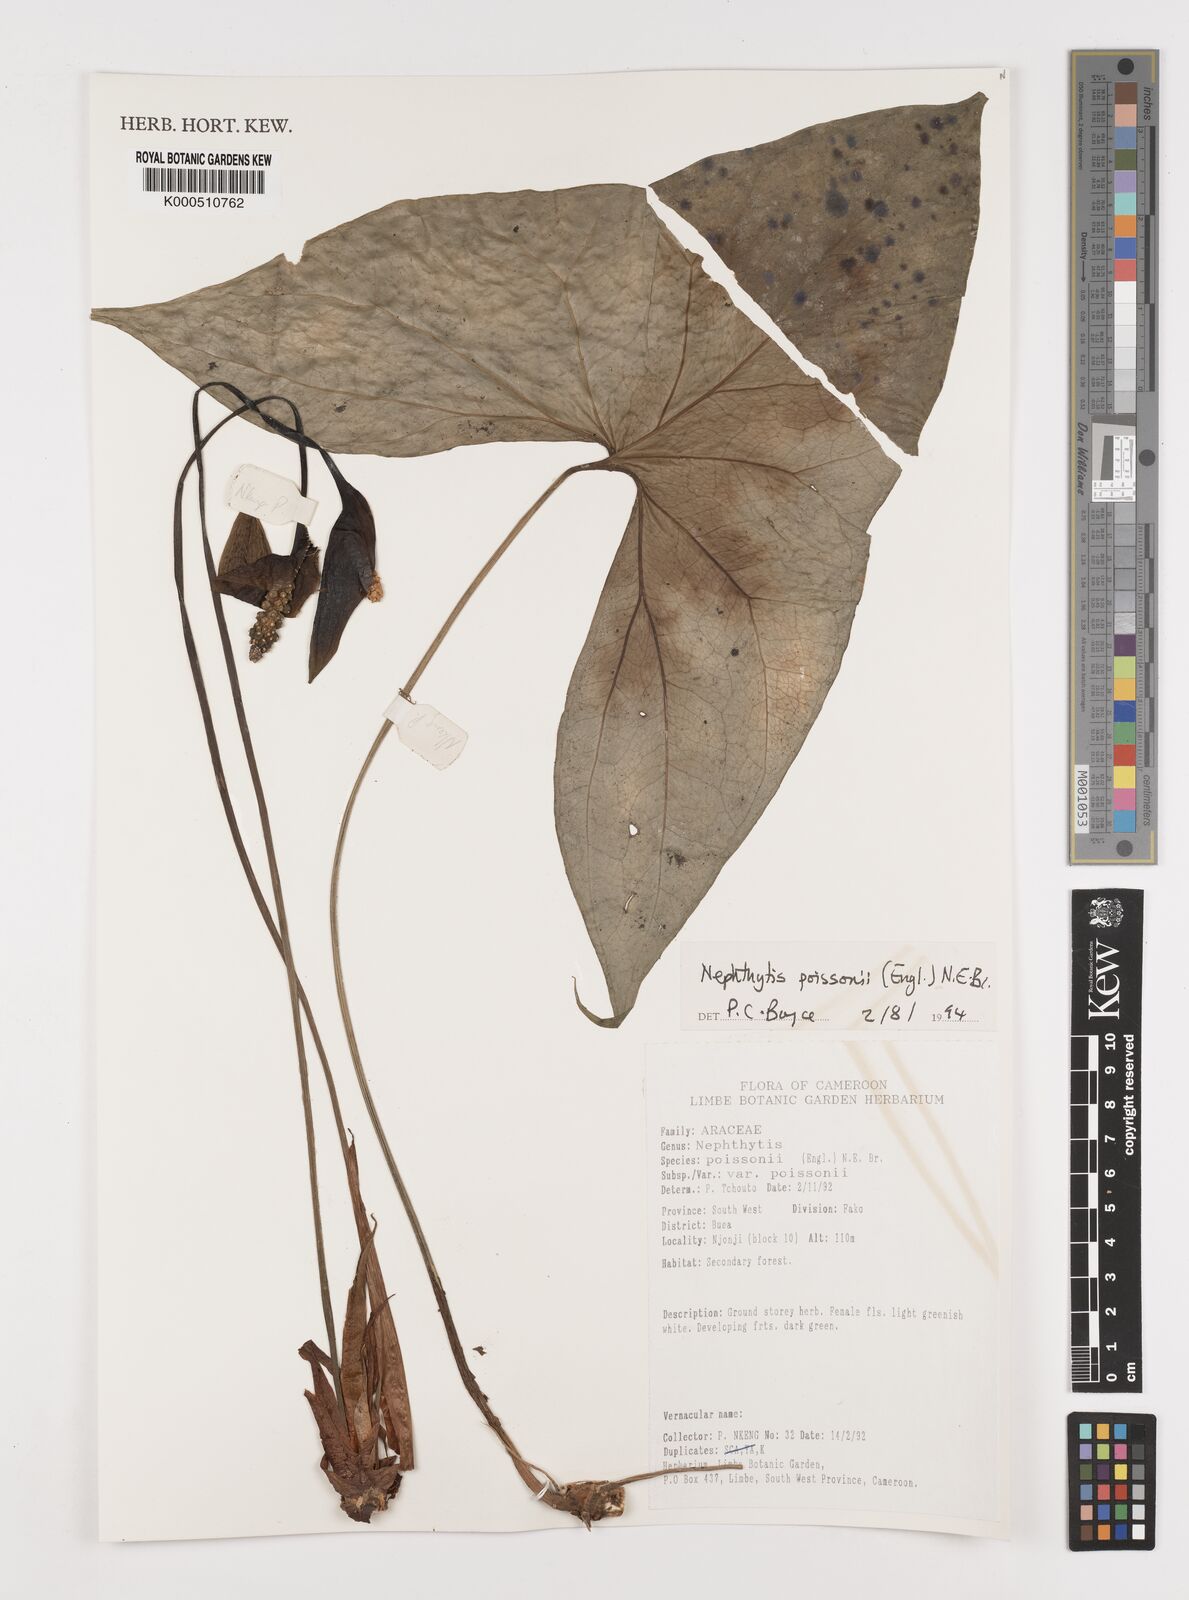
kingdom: Plantae
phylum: Tracheophyta
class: Liliopsida
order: Alismatales
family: Araceae
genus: Nephthytis
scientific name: Nephthytis poissonii
